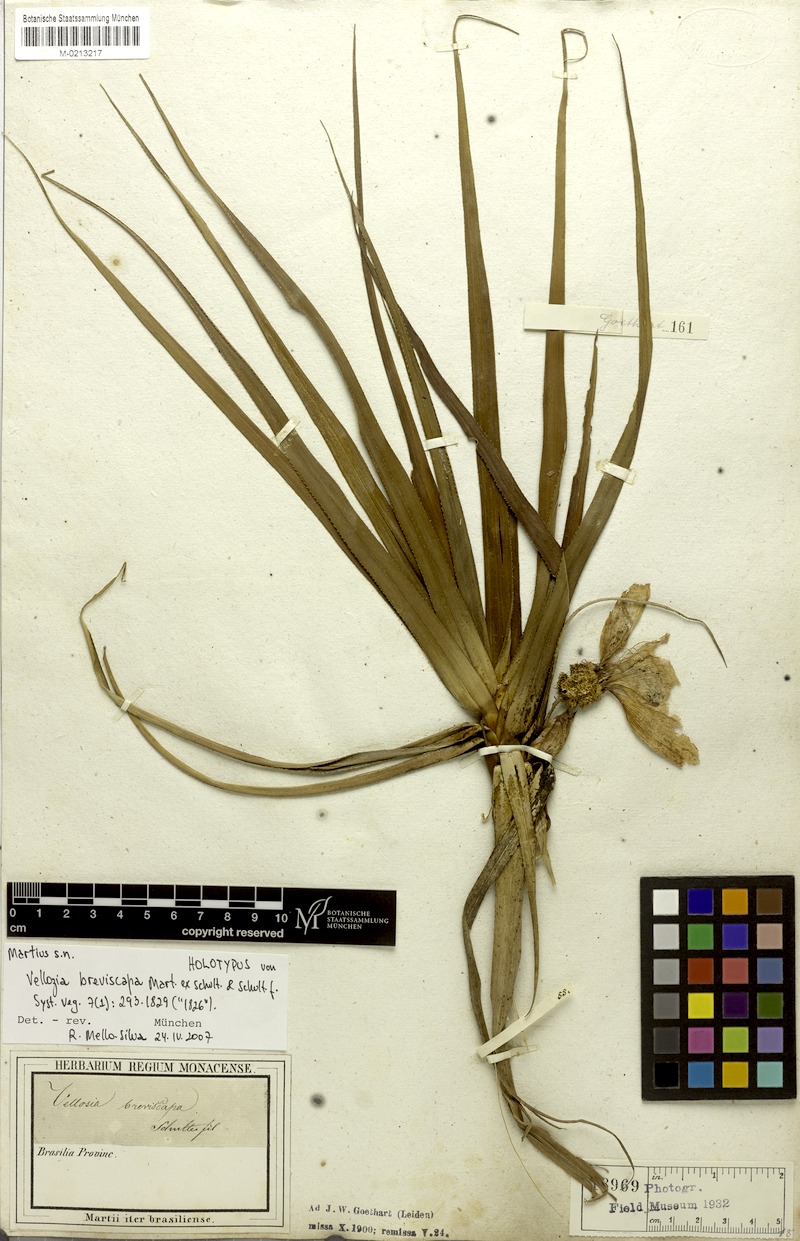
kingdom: Plantae
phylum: Tracheophyta
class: Liliopsida
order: Pandanales
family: Velloziaceae
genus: Vellozia
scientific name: Vellozia breviscapa
